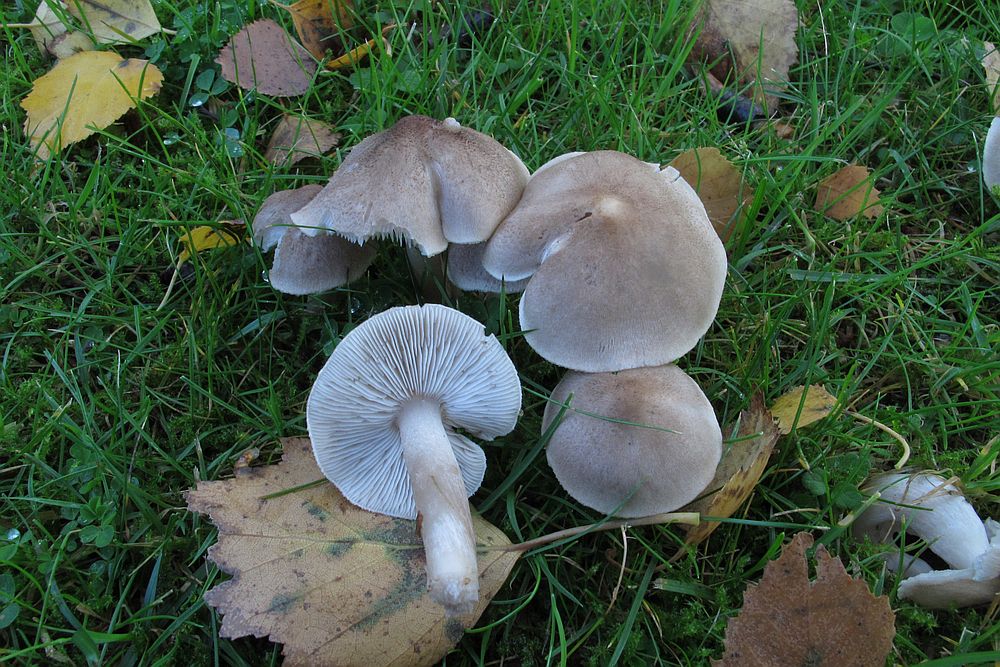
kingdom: Fungi
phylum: Basidiomycota
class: Agaricomycetes
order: Agaricales
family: Tricholomataceae
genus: Tricholoma
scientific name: Tricholoma argyraceum
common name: spids ridderhat
